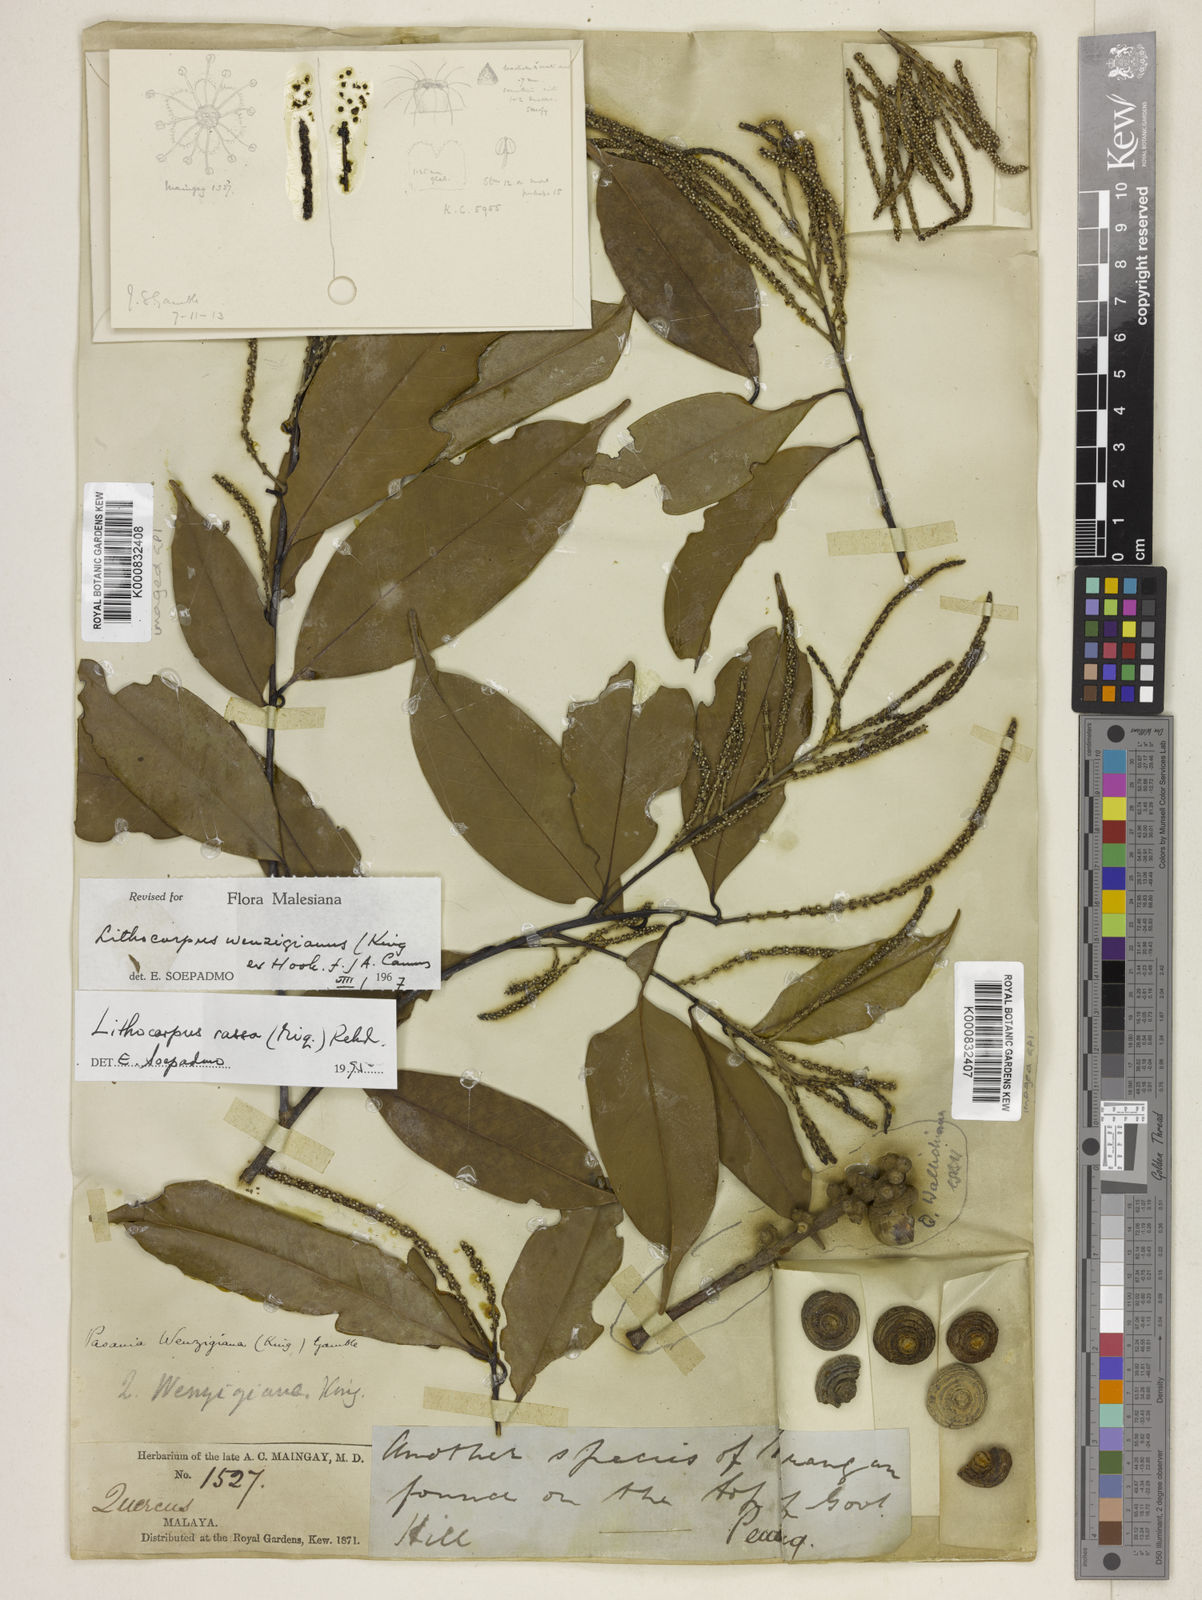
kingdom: Plantae
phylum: Tracheophyta
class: Magnoliopsida
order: Fagales
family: Fagaceae
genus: Lithocarpus
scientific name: Lithocarpus rassa
